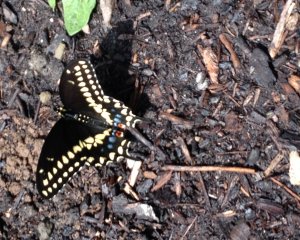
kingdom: Animalia
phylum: Arthropoda
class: Insecta
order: Lepidoptera
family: Papilionidae
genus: Papilio
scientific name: Papilio polyxenes
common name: Black Swallowtail
